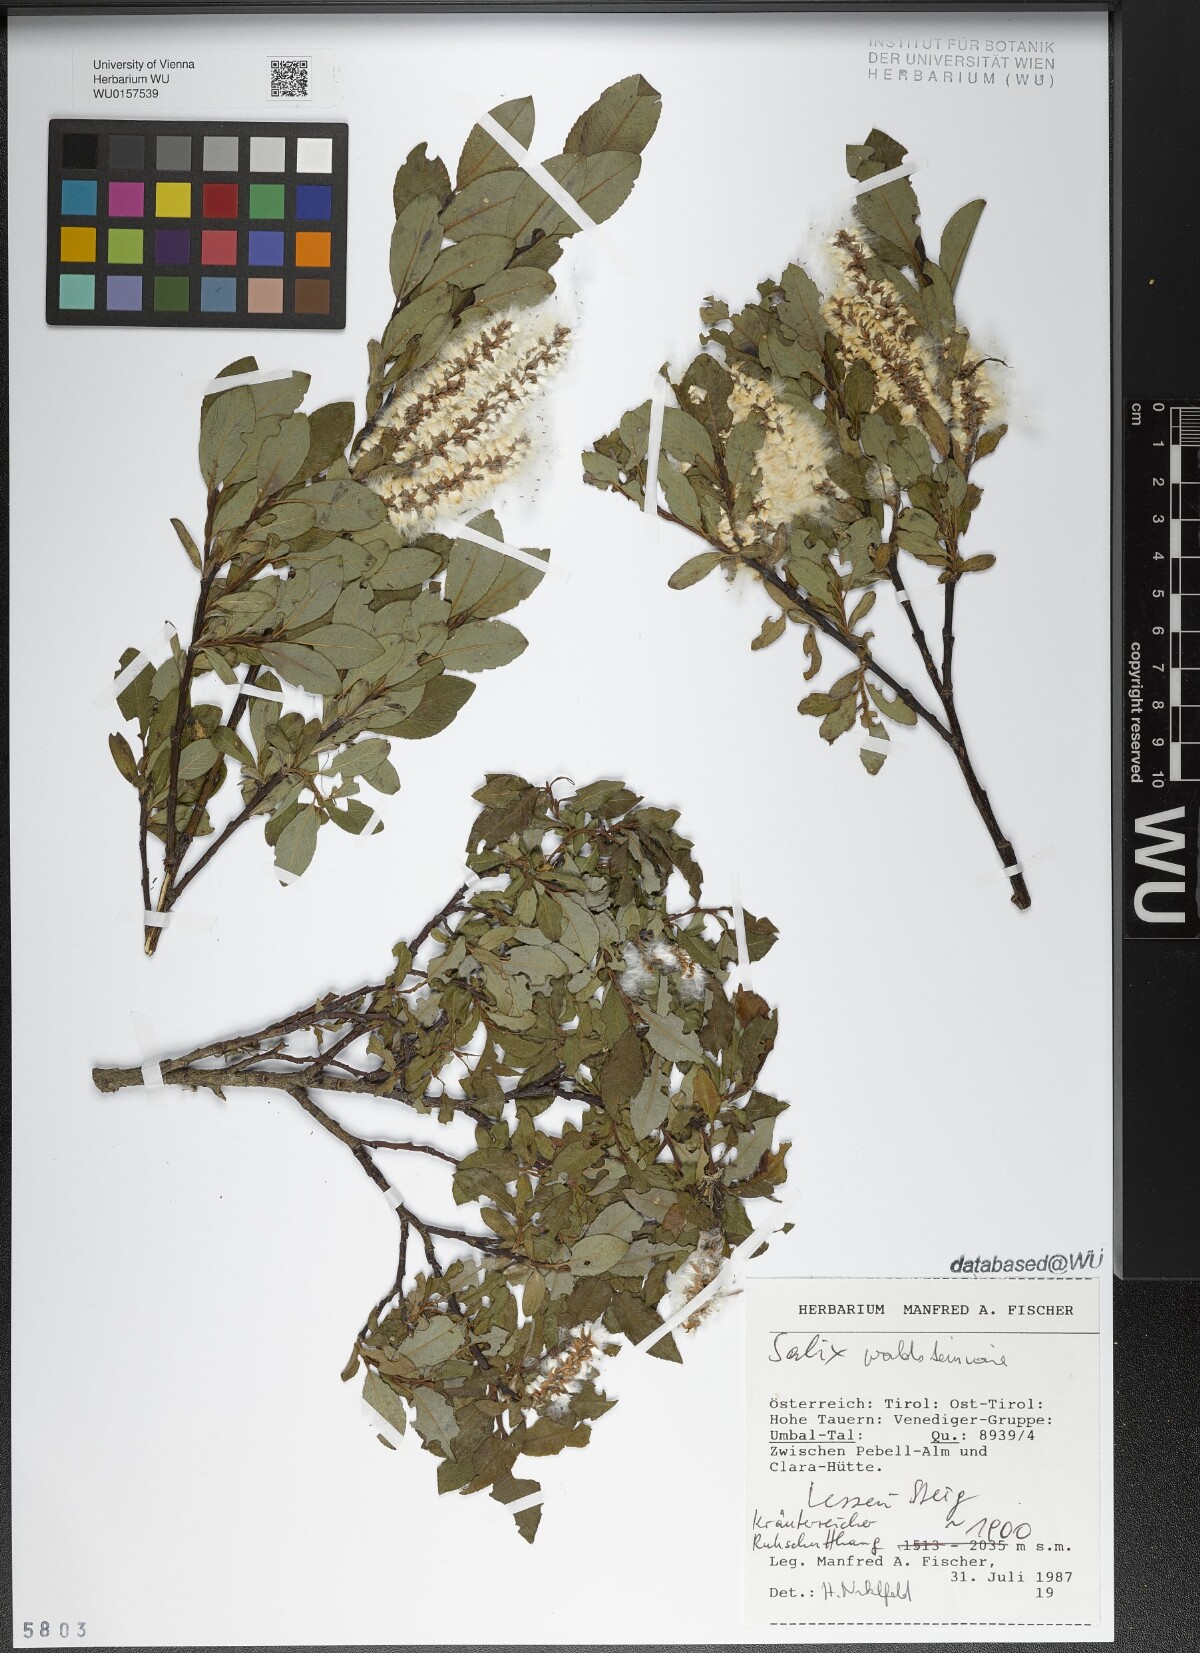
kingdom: Plantae
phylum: Tracheophyta
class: Magnoliopsida
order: Malpighiales
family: Salicaceae
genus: Salix
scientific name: Salix waldsteiniana
